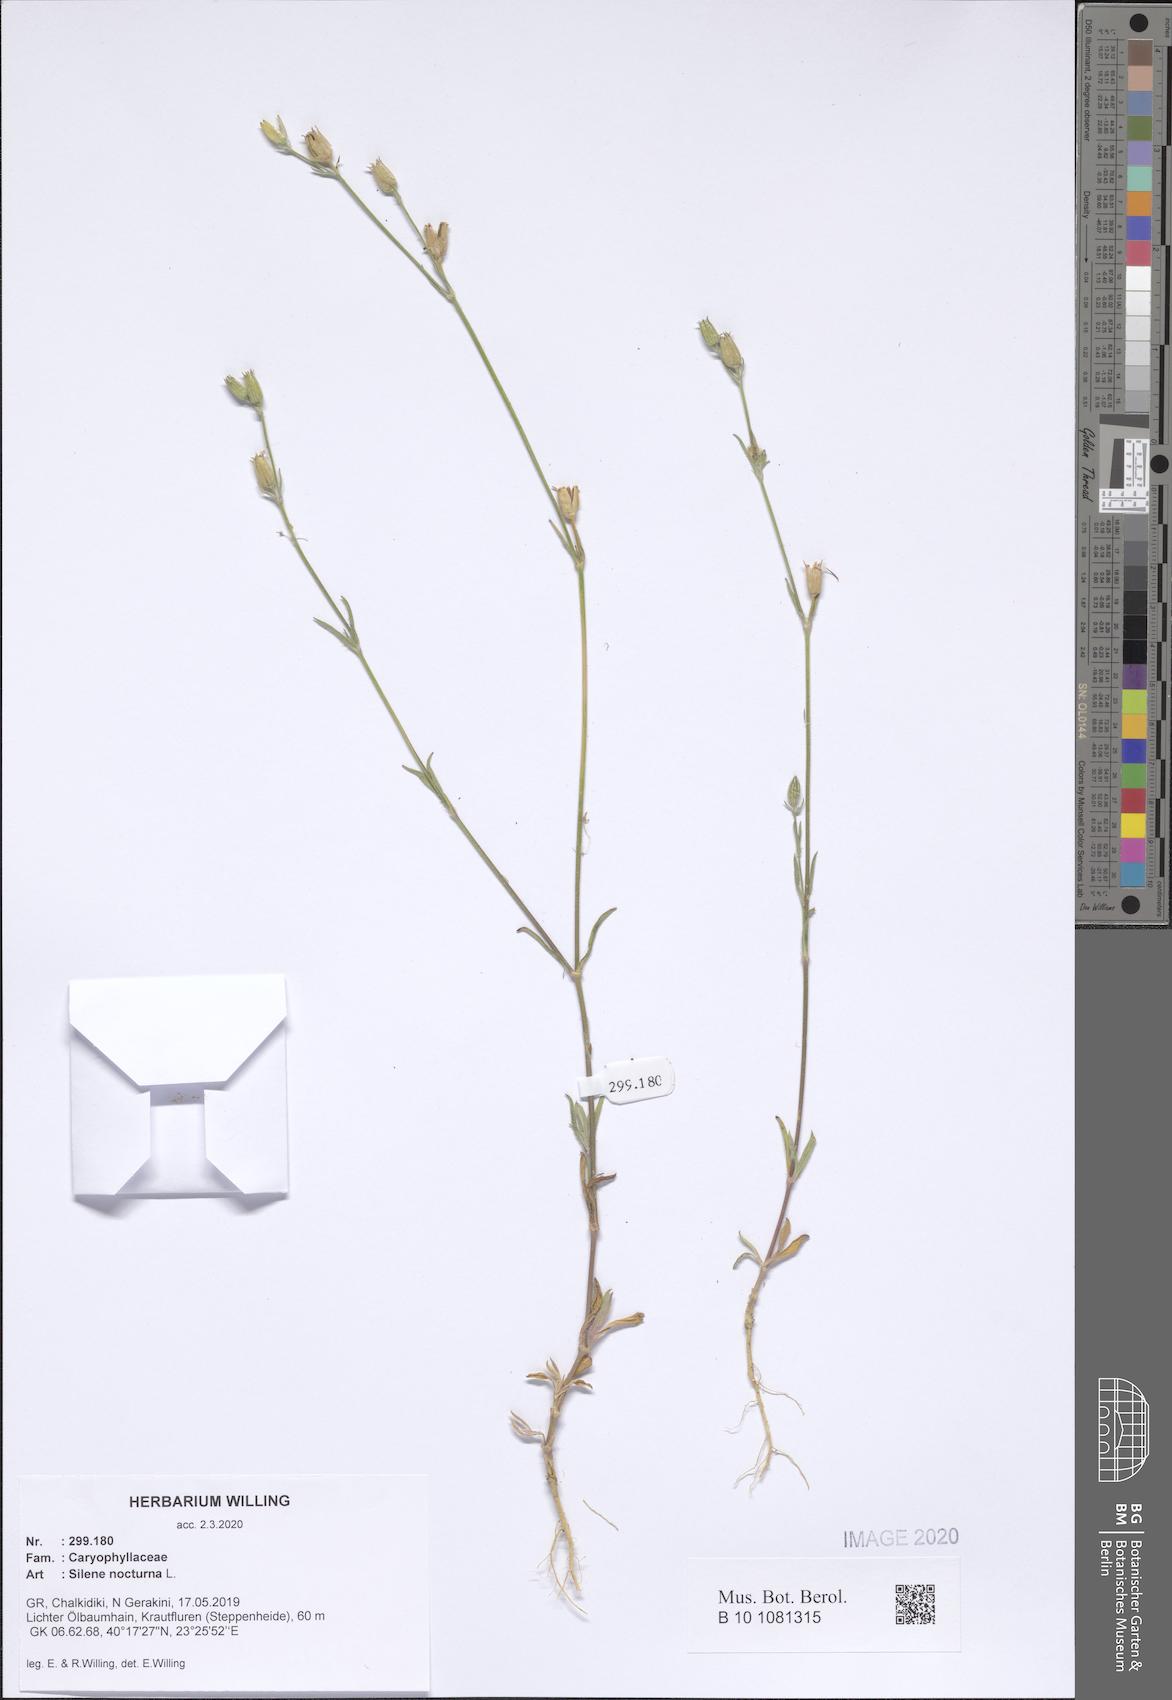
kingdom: Plantae
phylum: Tracheophyta
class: Magnoliopsida
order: Caryophyllales
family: Caryophyllaceae
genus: Silene
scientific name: Silene nocturna
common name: Mediterranean catchfly
